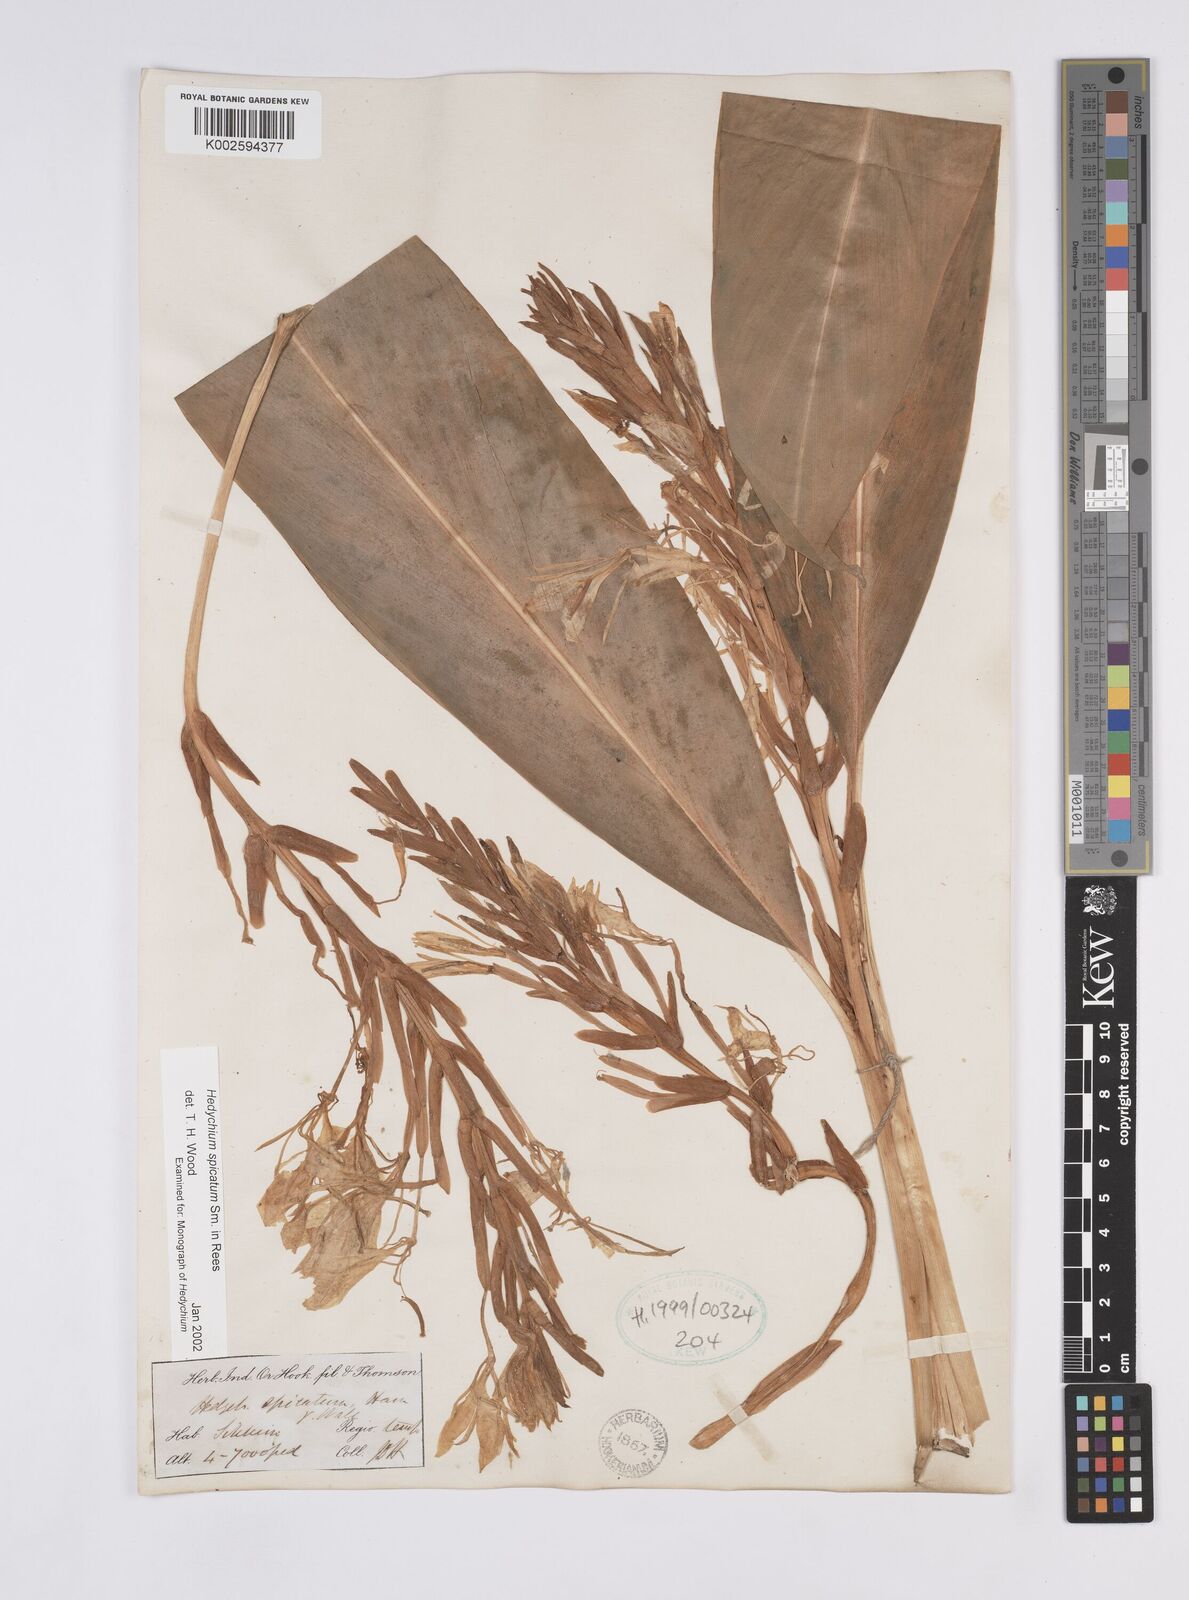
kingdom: Plantae
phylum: Tracheophyta
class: Liliopsida
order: Zingiberales
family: Zingiberaceae
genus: Hedychium
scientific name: Hedychium spicatum
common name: Spiked ginger-lily
